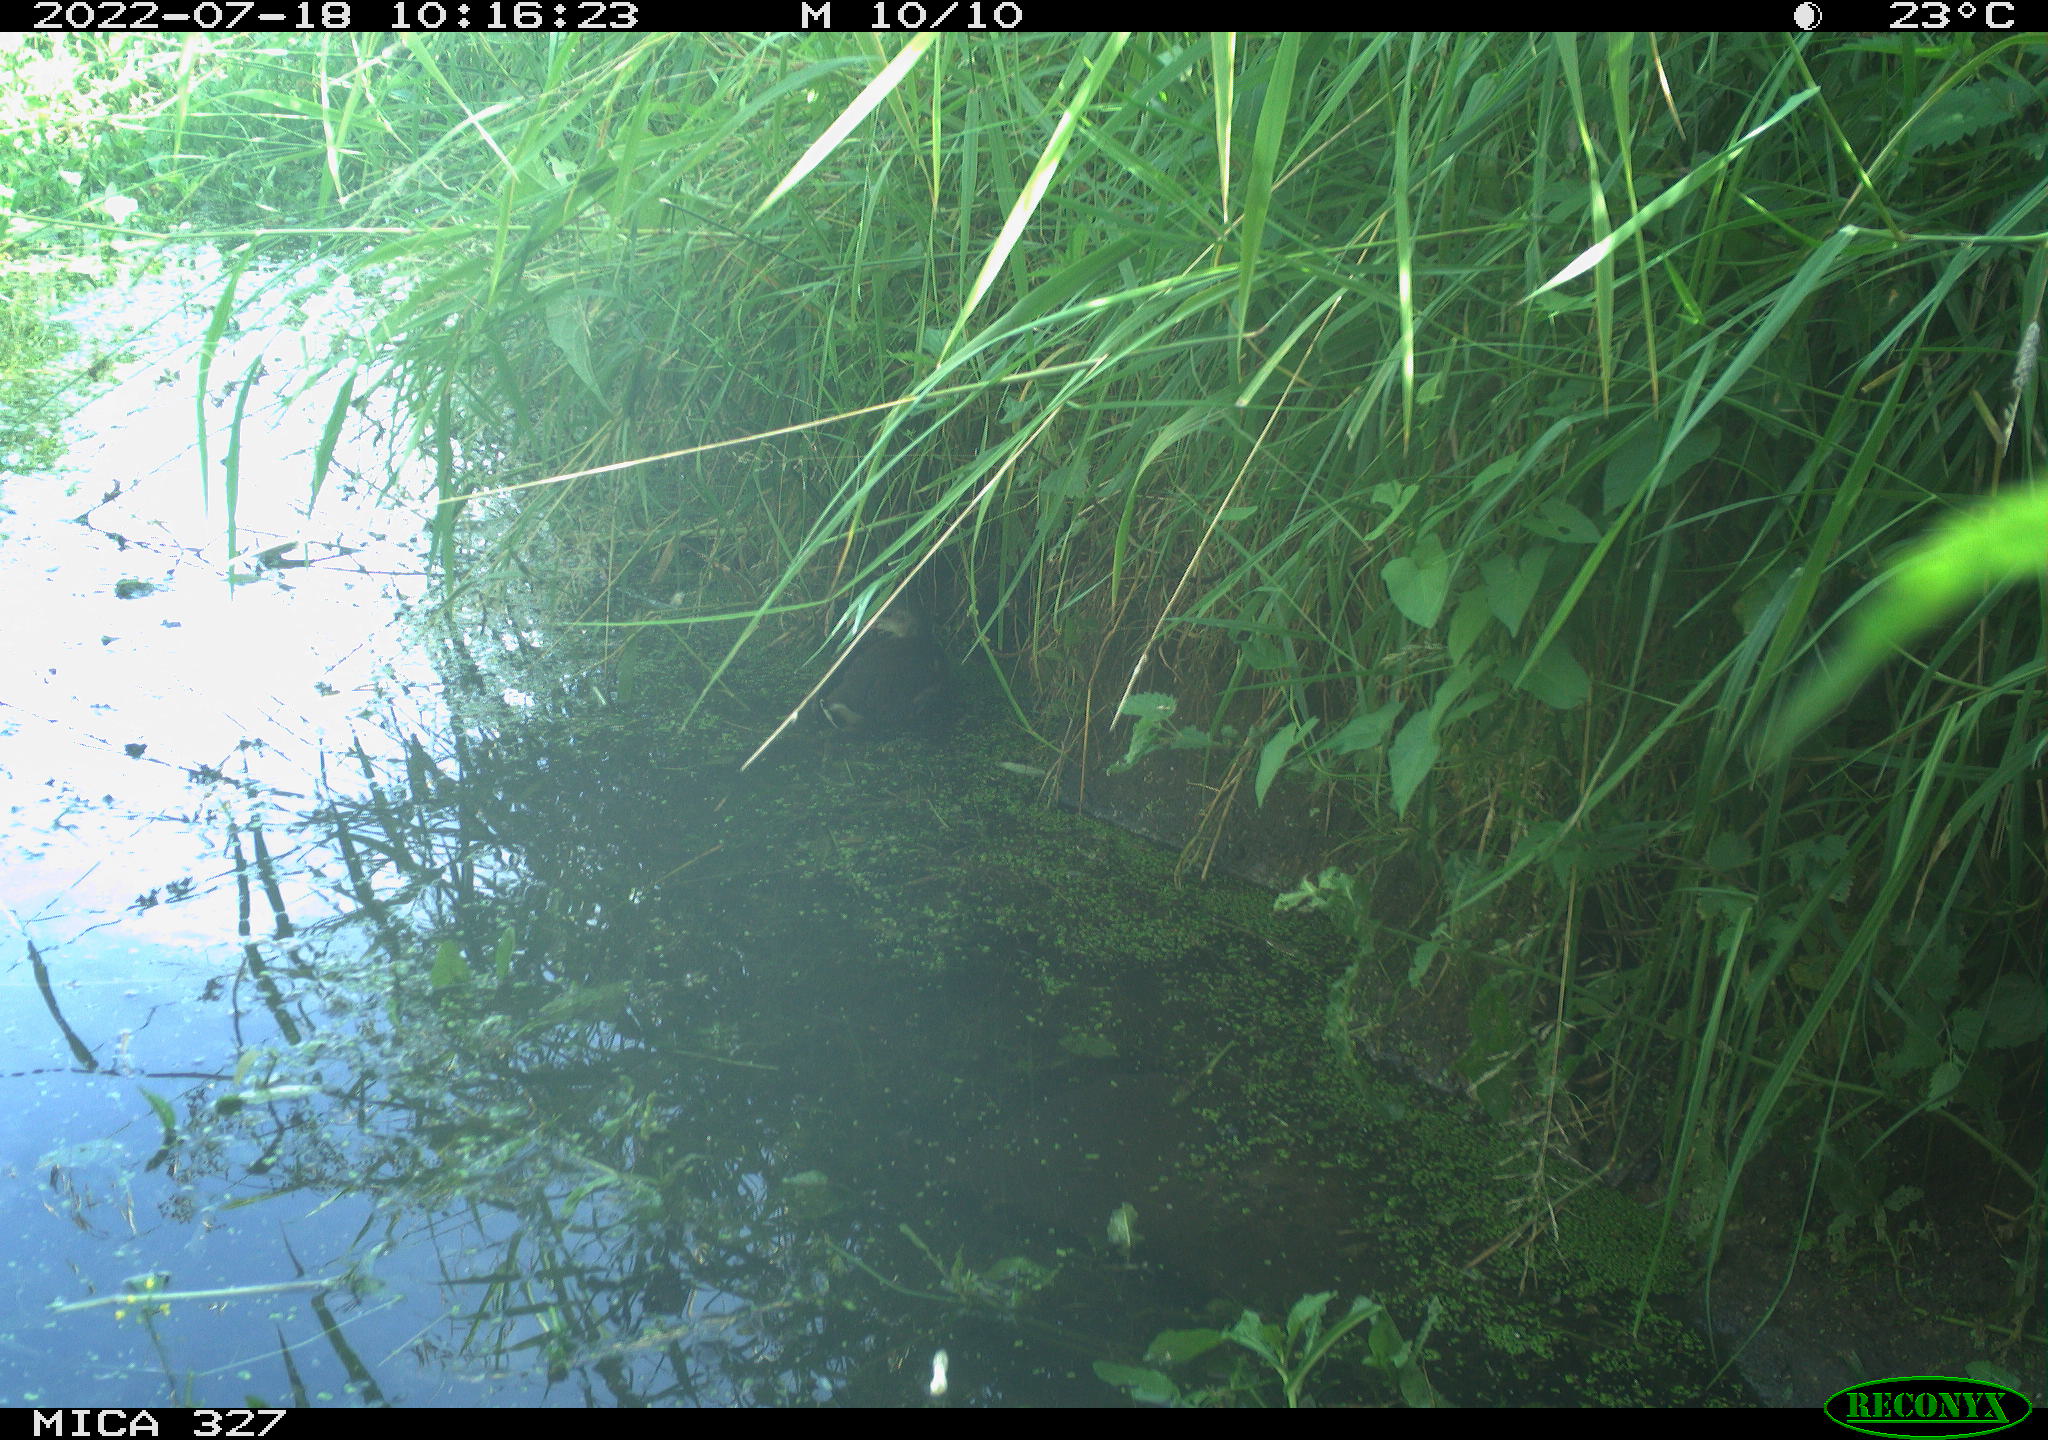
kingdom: Animalia
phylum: Chordata
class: Aves
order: Gruiformes
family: Rallidae
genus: Gallinula
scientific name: Gallinula chloropus
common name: Common moorhen
